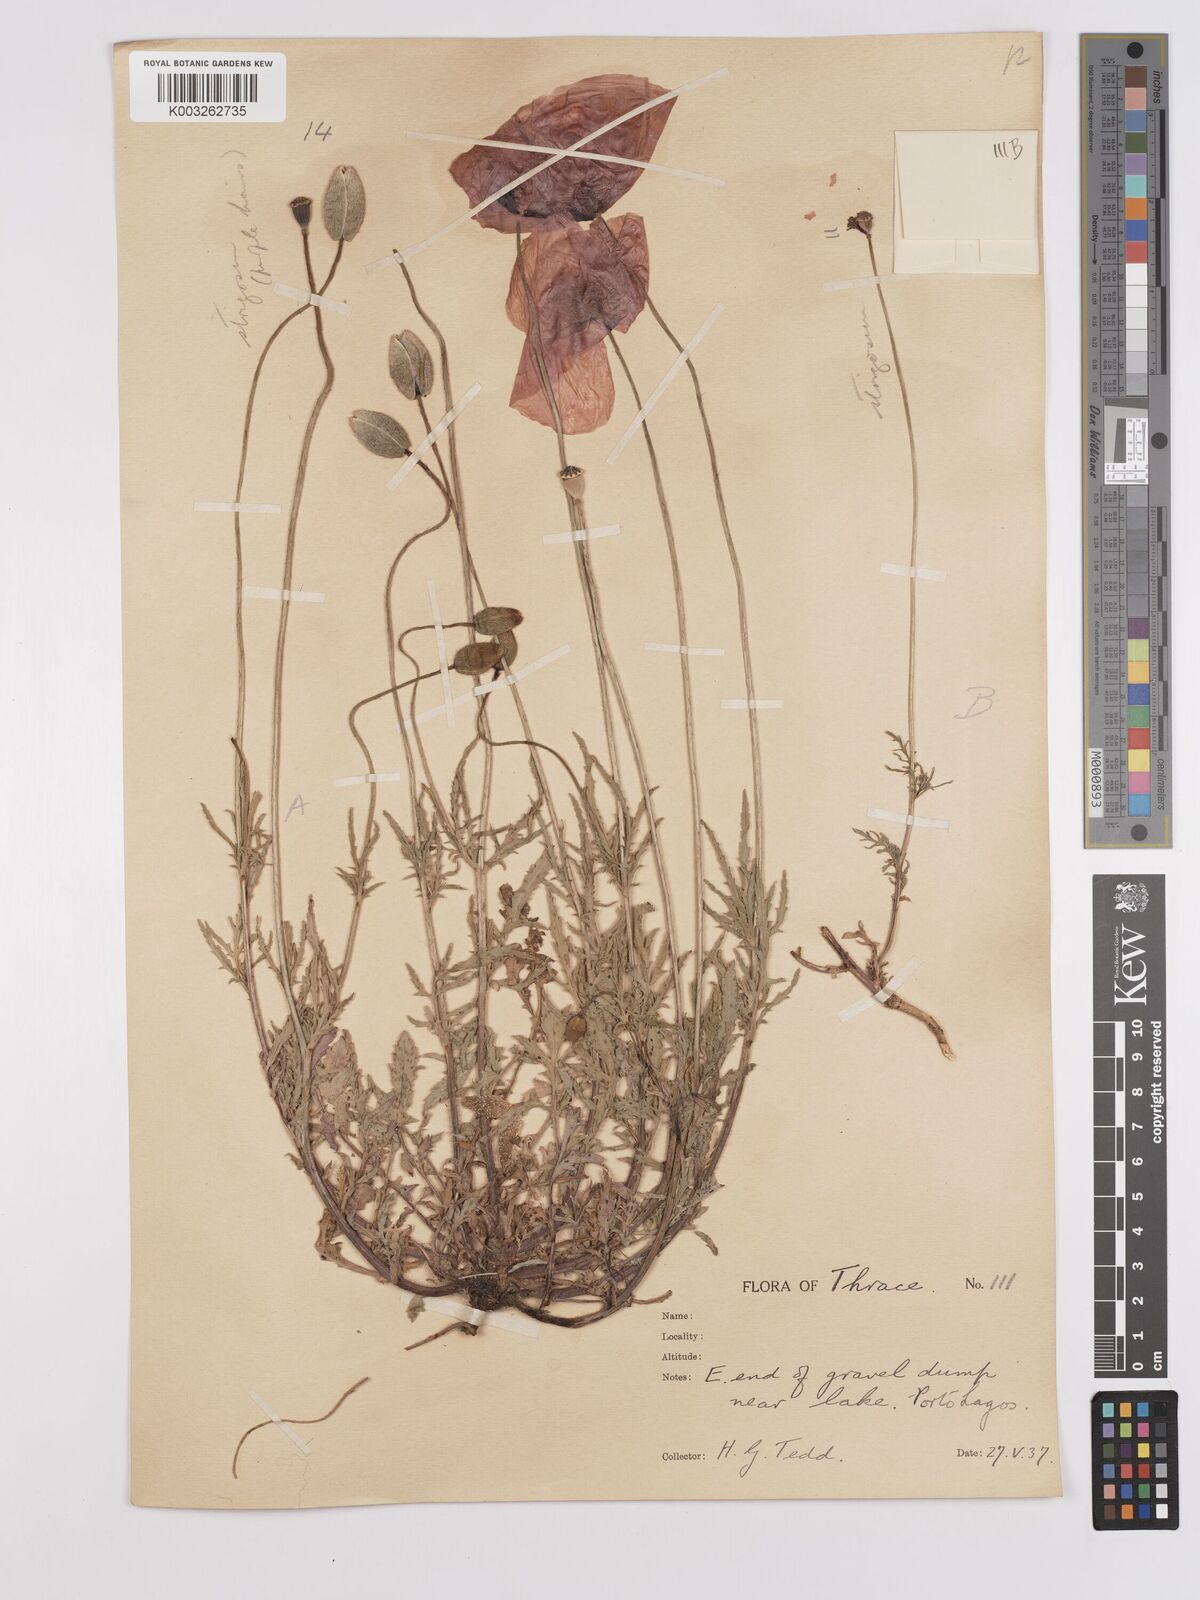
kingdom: Plantae
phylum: Tracheophyta
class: Magnoliopsida
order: Ranunculales
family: Papaveraceae
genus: Papaver
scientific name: Papaver
